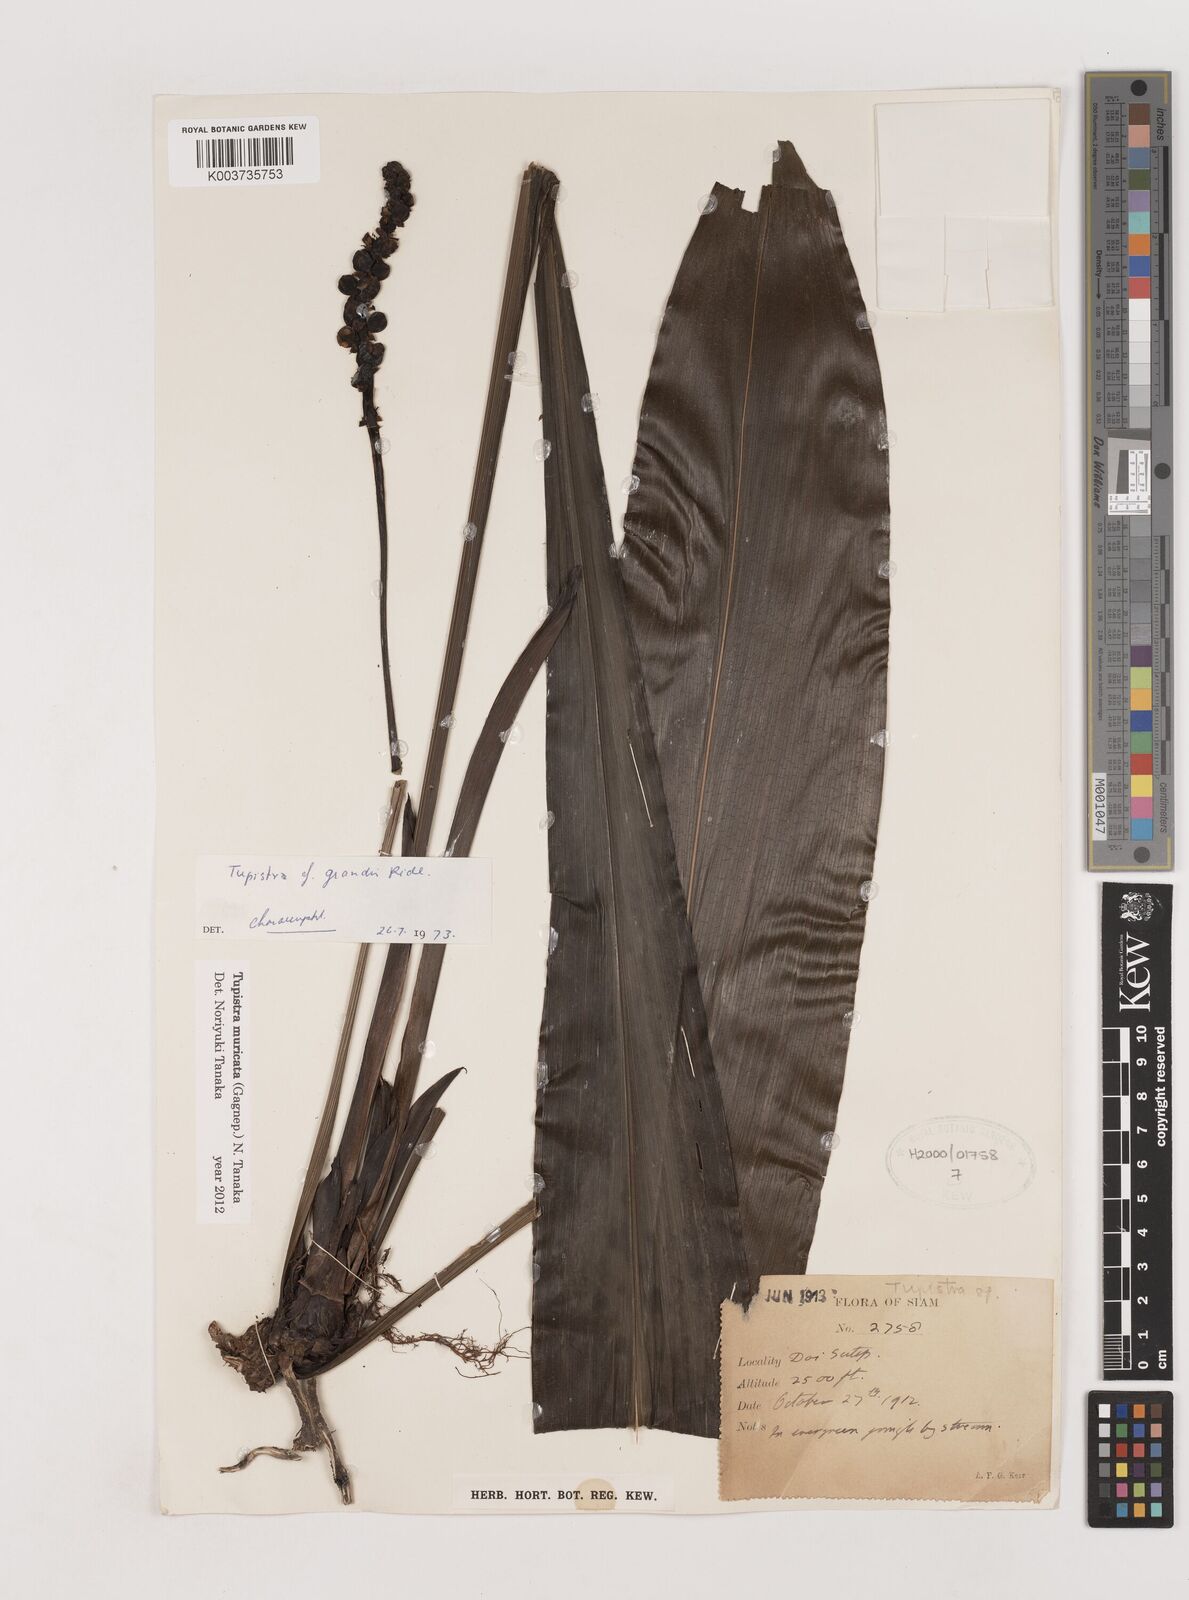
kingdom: Plantae
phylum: Tracheophyta
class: Liliopsida
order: Asparagales
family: Asparagaceae
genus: Tupistra
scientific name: Tupistra muricata
